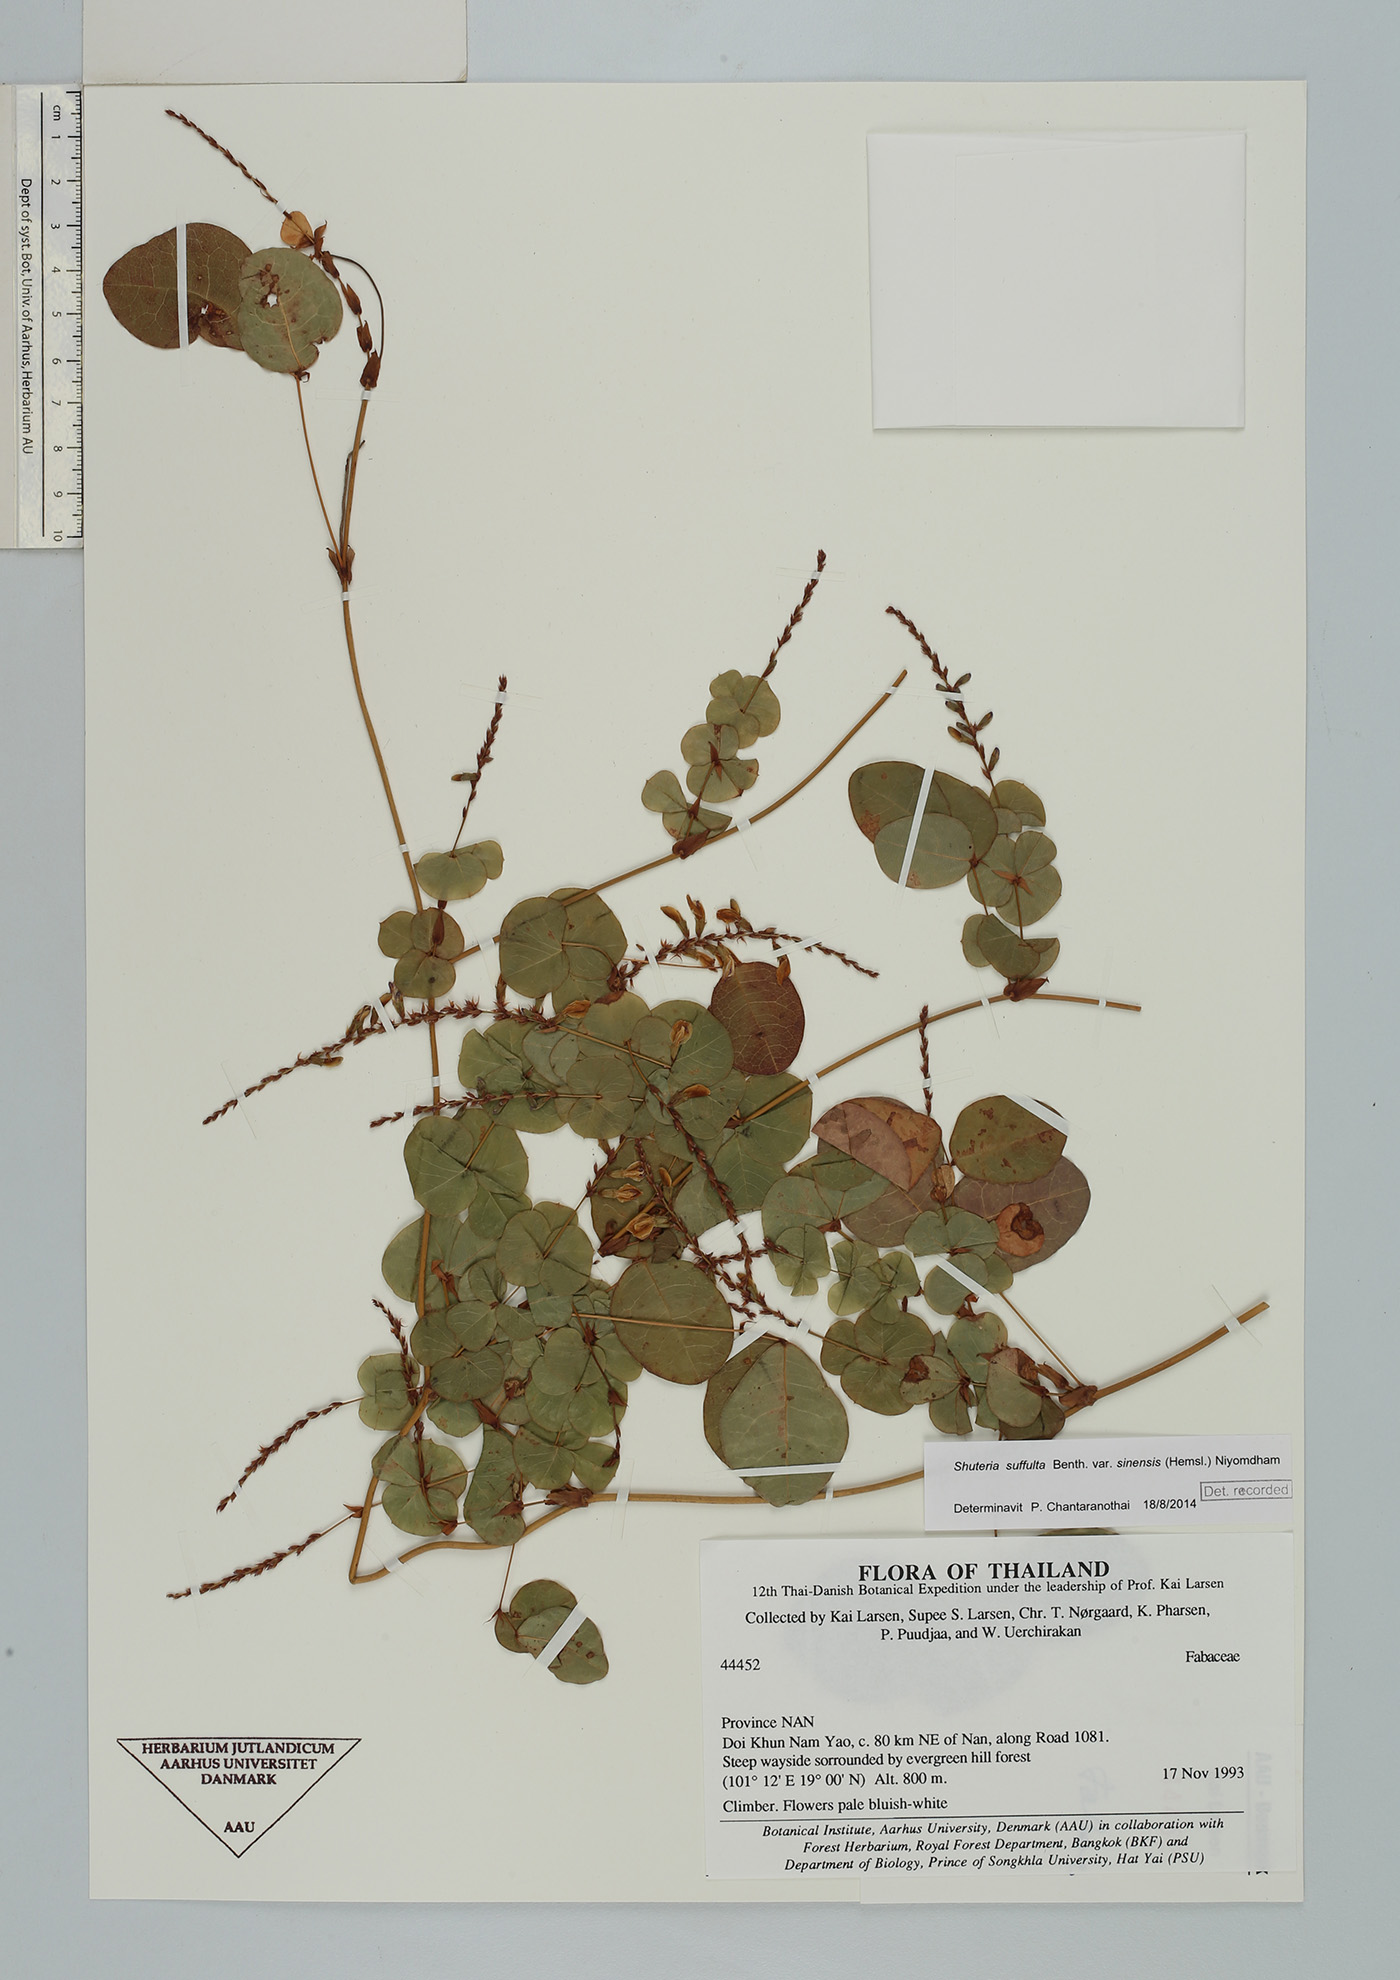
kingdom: Plantae
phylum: Tracheophyta
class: Magnoliopsida
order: Fabales
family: Fabaceae
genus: Shuteria
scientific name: Shuteria involucrata
